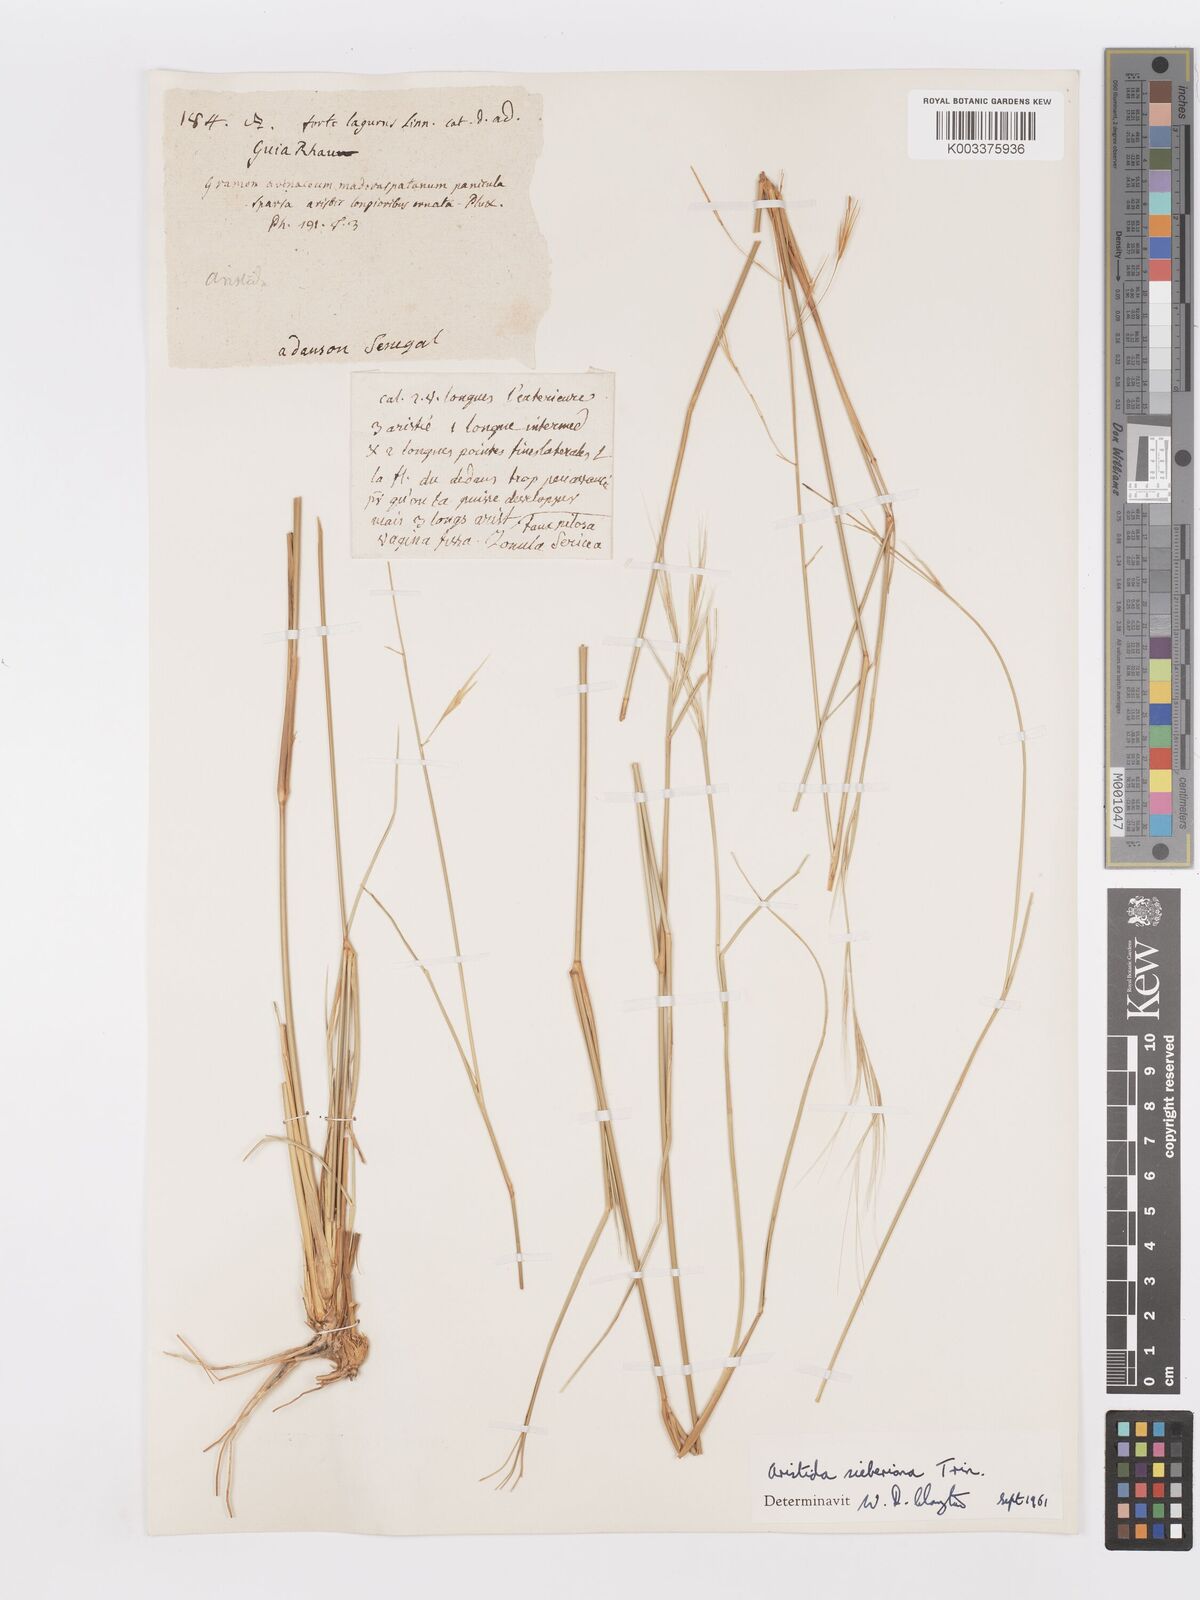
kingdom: Plantae
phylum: Tracheophyta
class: Liliopsida
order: Poales
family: Poaceae
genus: Aristida
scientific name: Aristida sieberiana
